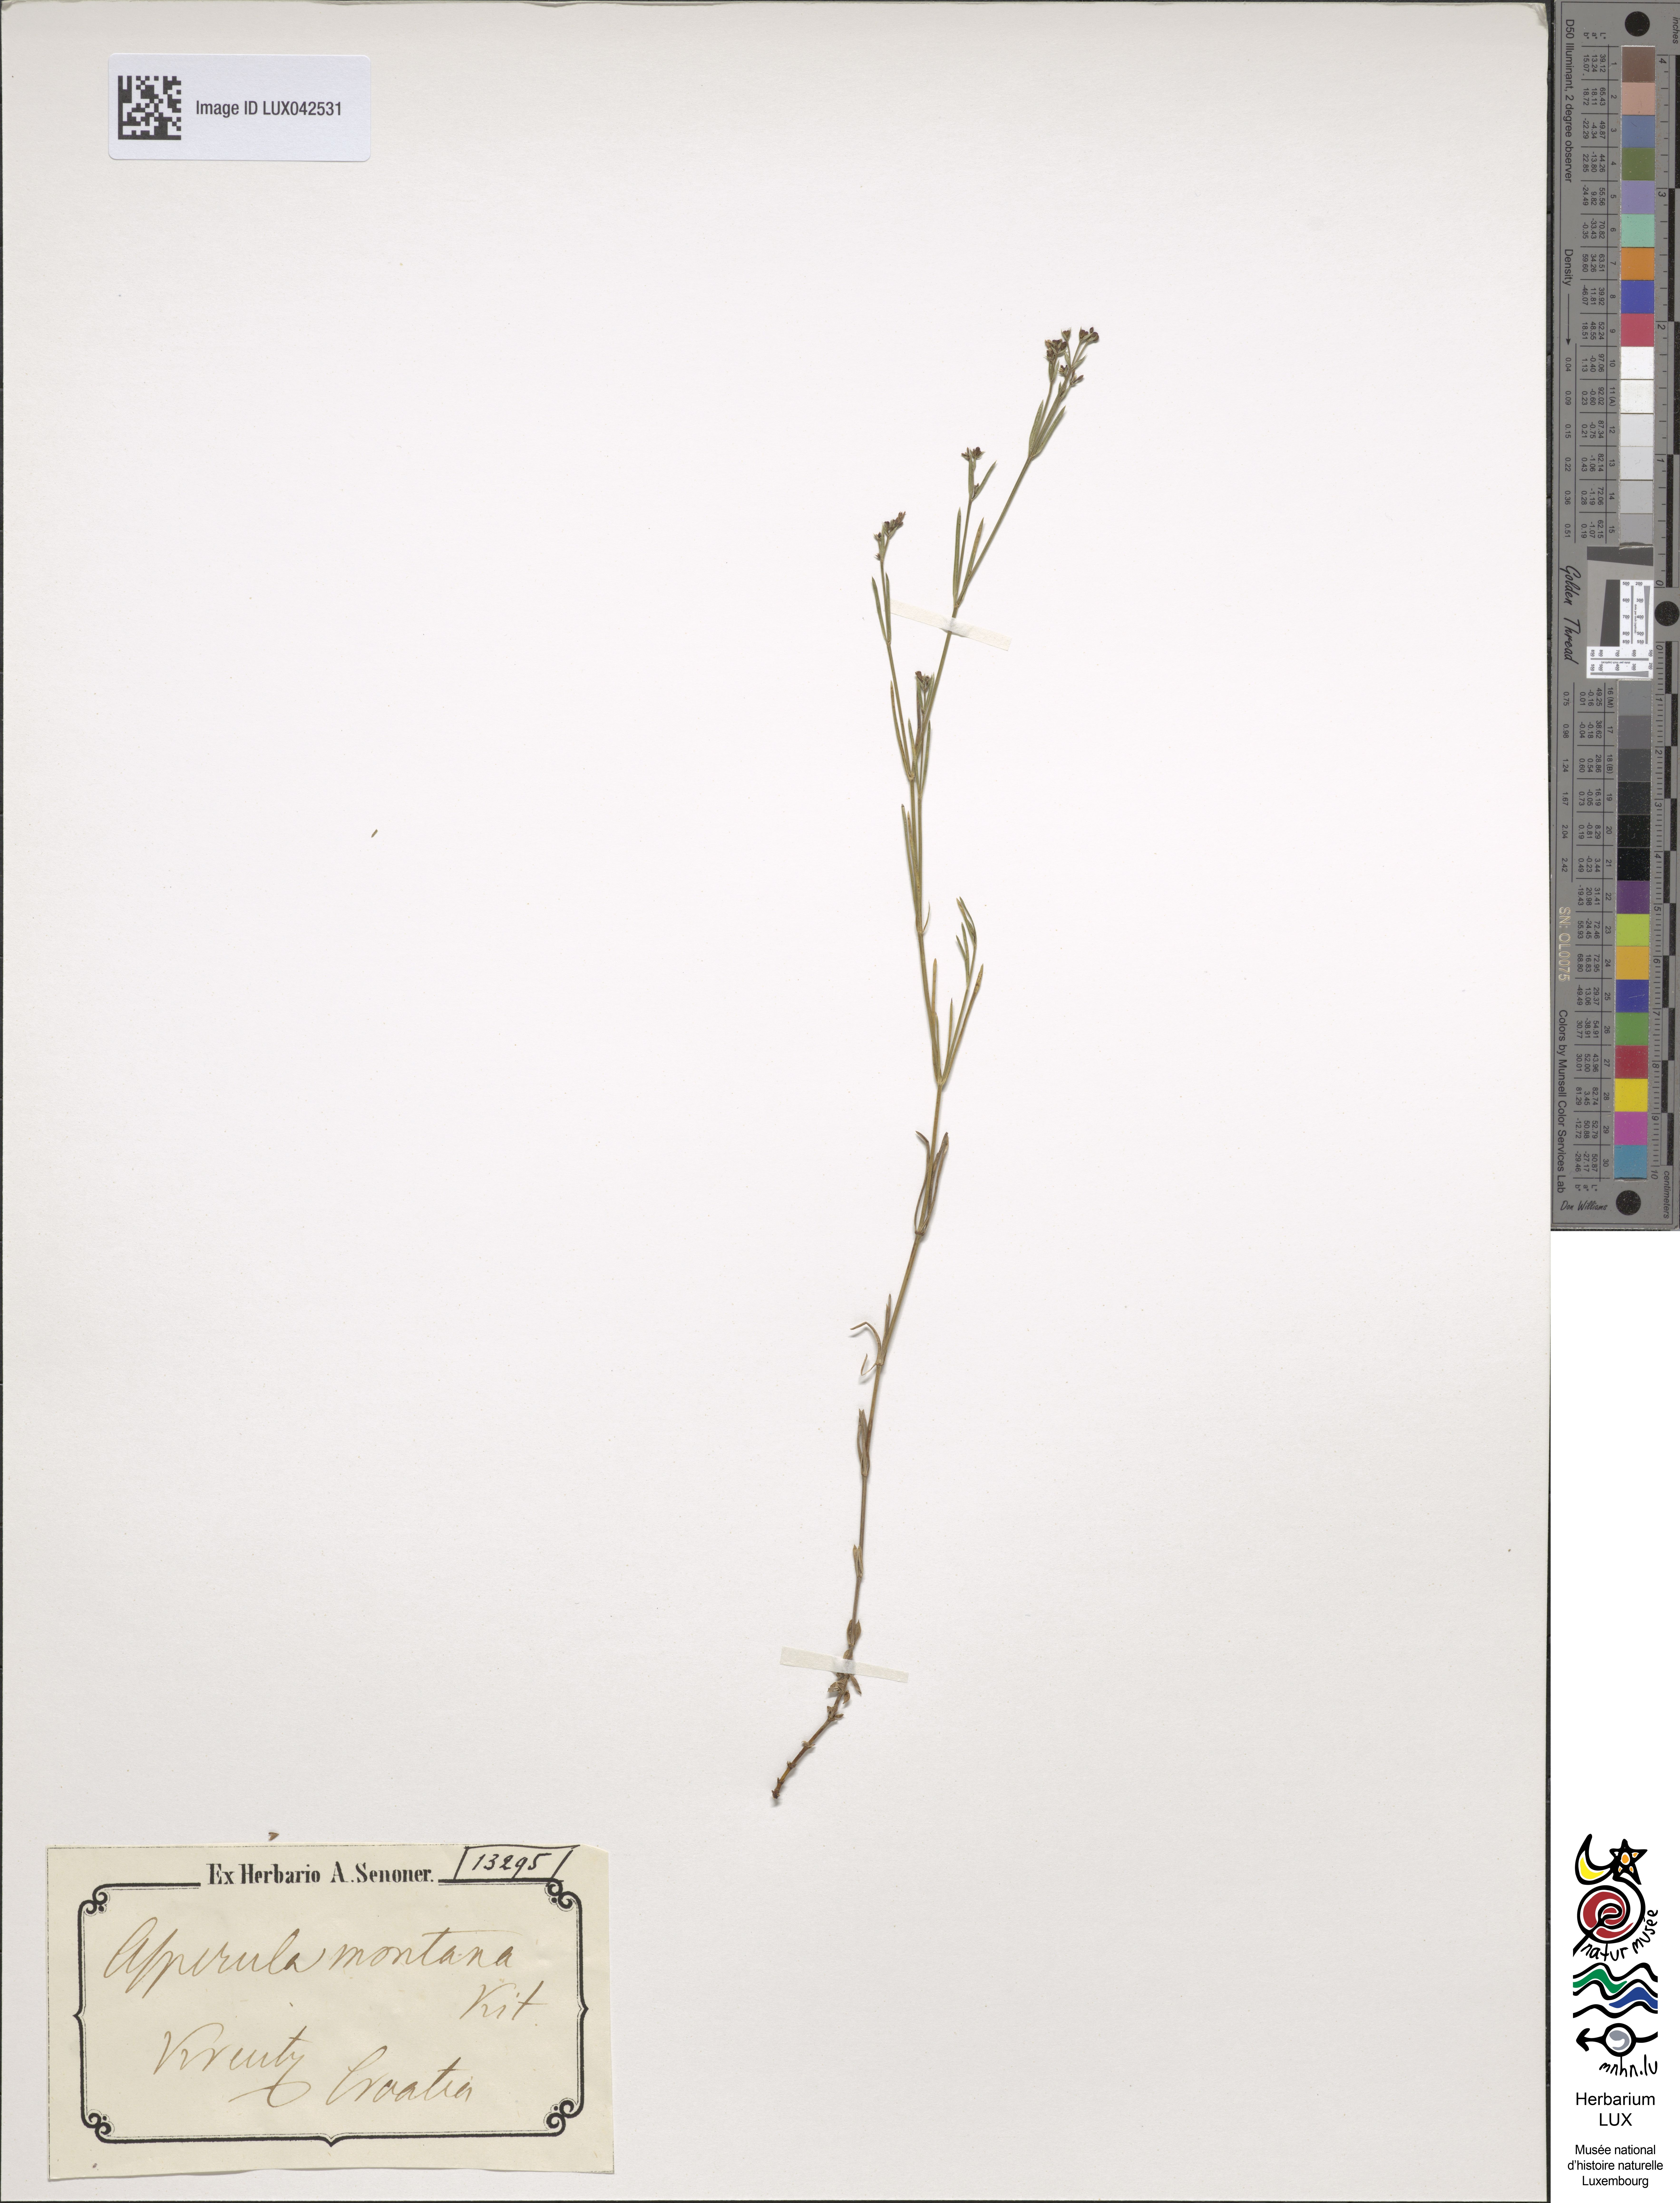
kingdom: Plantae
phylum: Tracheophyta
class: Magnoliopsida
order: Gentianales
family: Rubiaceae
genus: Cynanchica
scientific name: Cynanchica aristata
